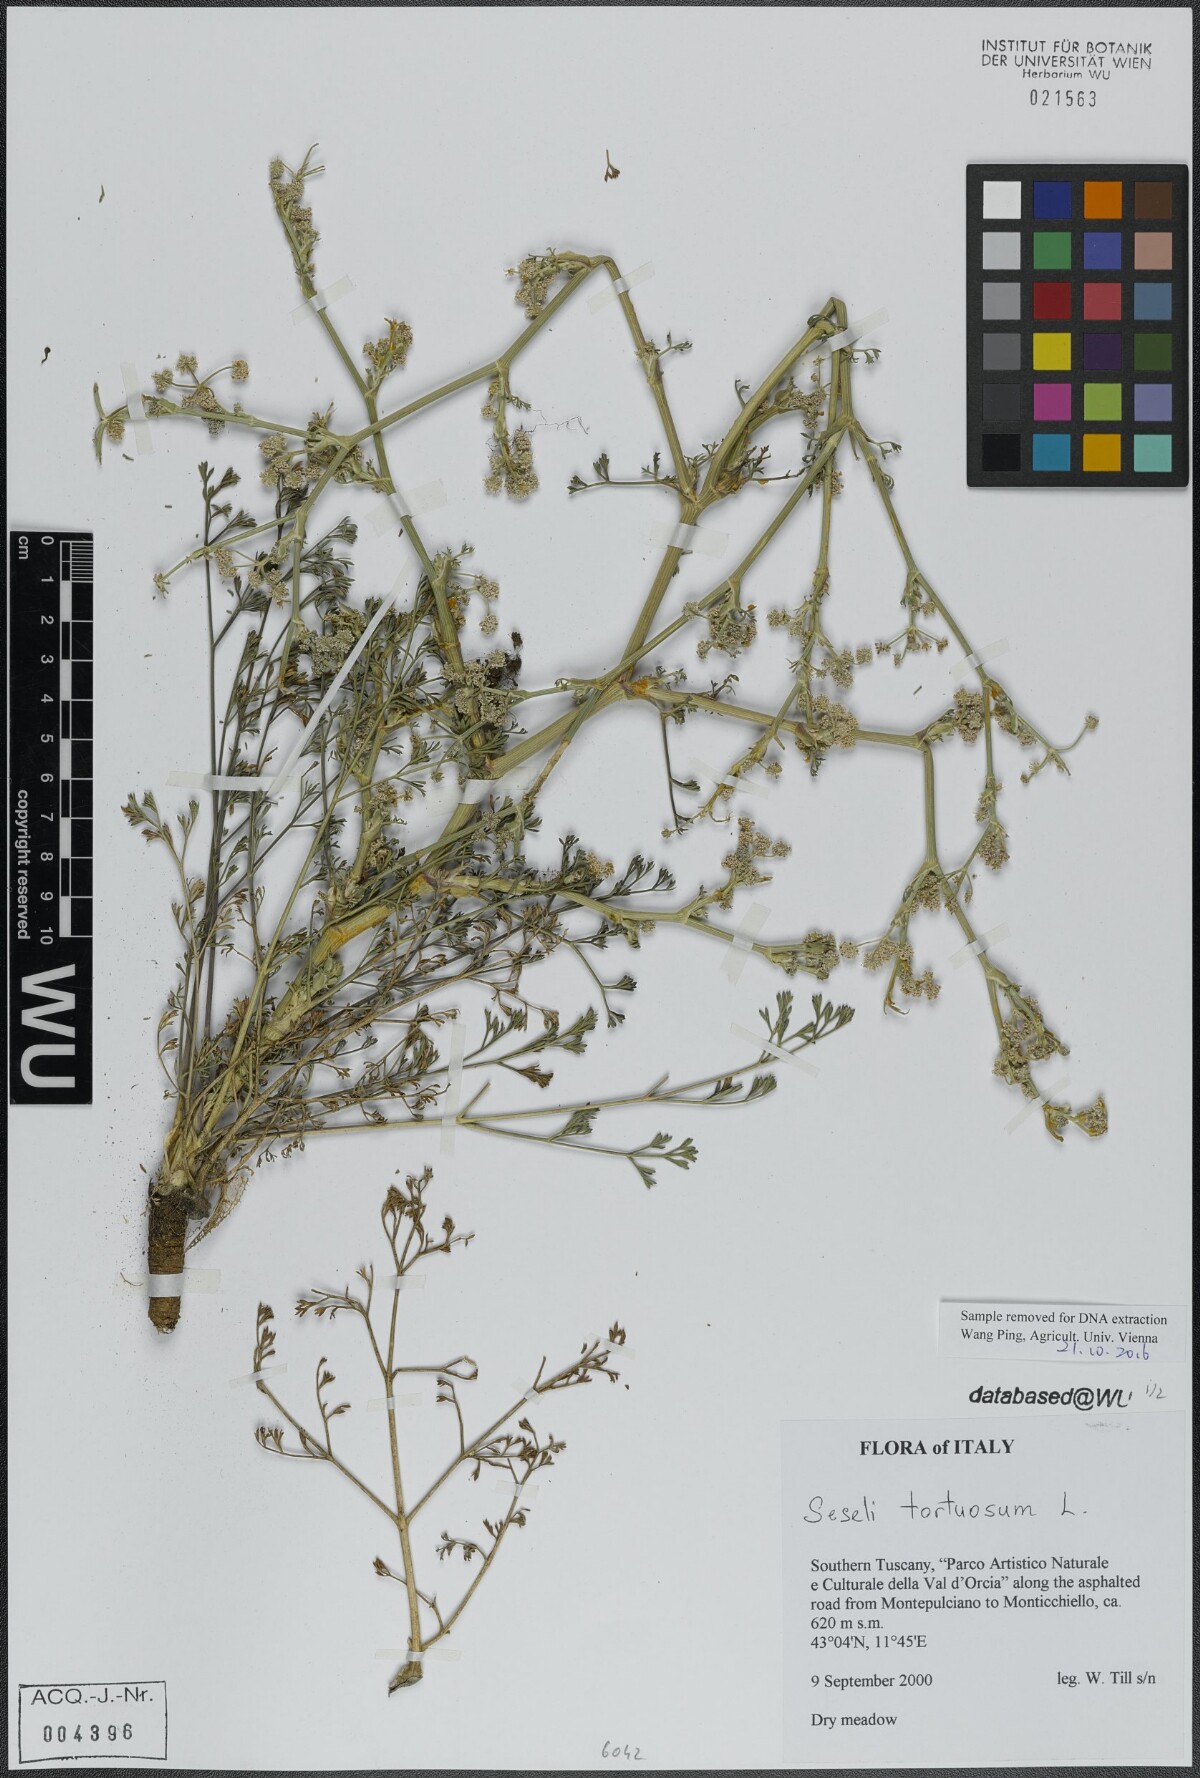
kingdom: Plantae
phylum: Tracheophyta
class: Magnoliopsida
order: Apiales
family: Apiaceae
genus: Seseli
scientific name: Seseli tortuosum
